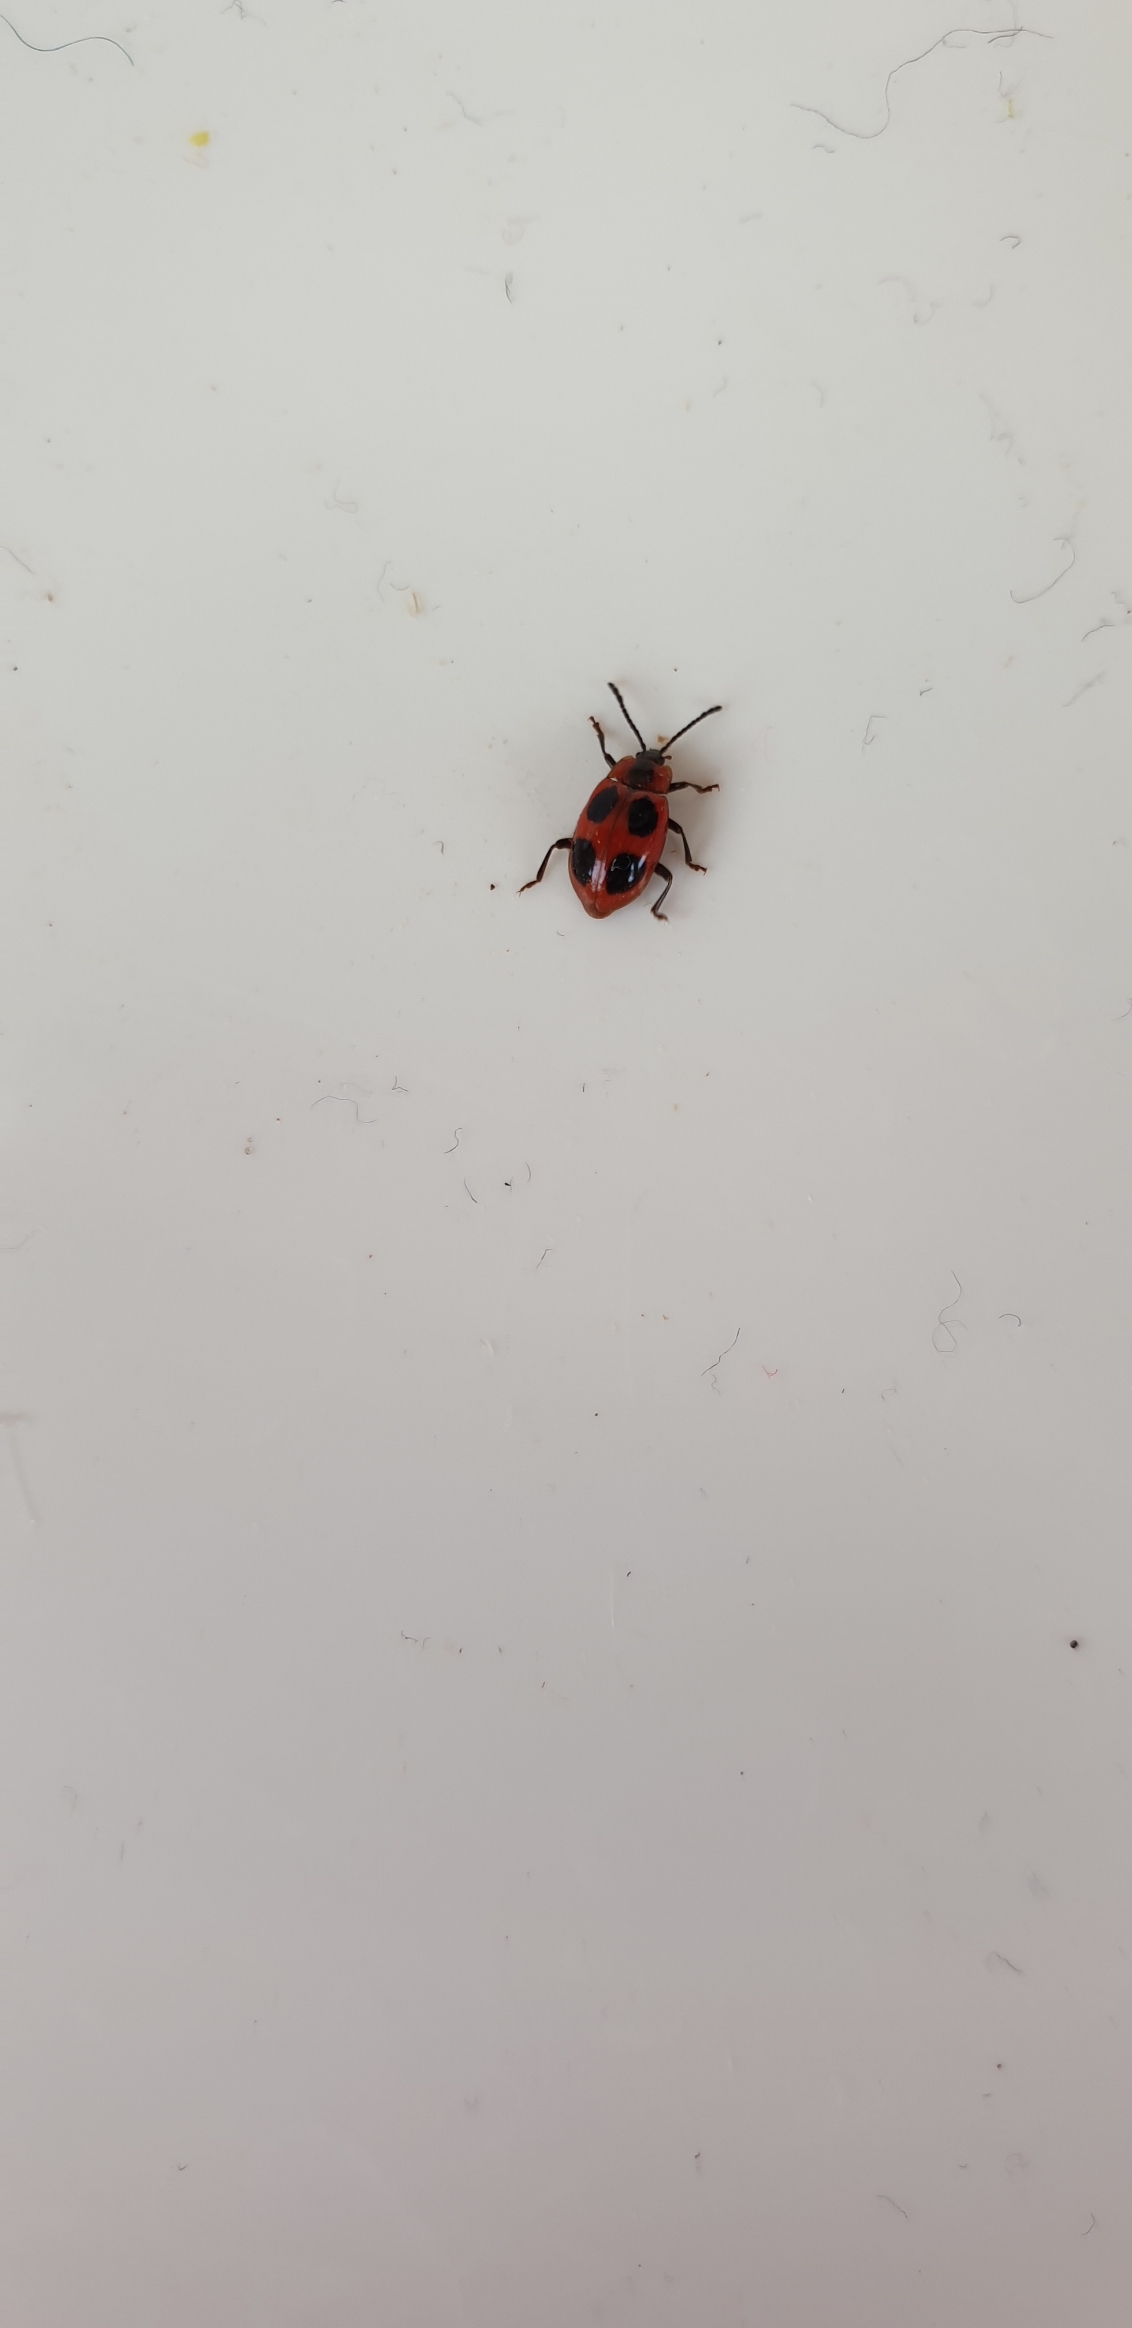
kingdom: Animalia
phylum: Arthropoda
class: Insecta
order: Coleoptera
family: Endomychidae
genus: Endomychus
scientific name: Endomychus coccineus
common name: Skarlagensvampehøne
